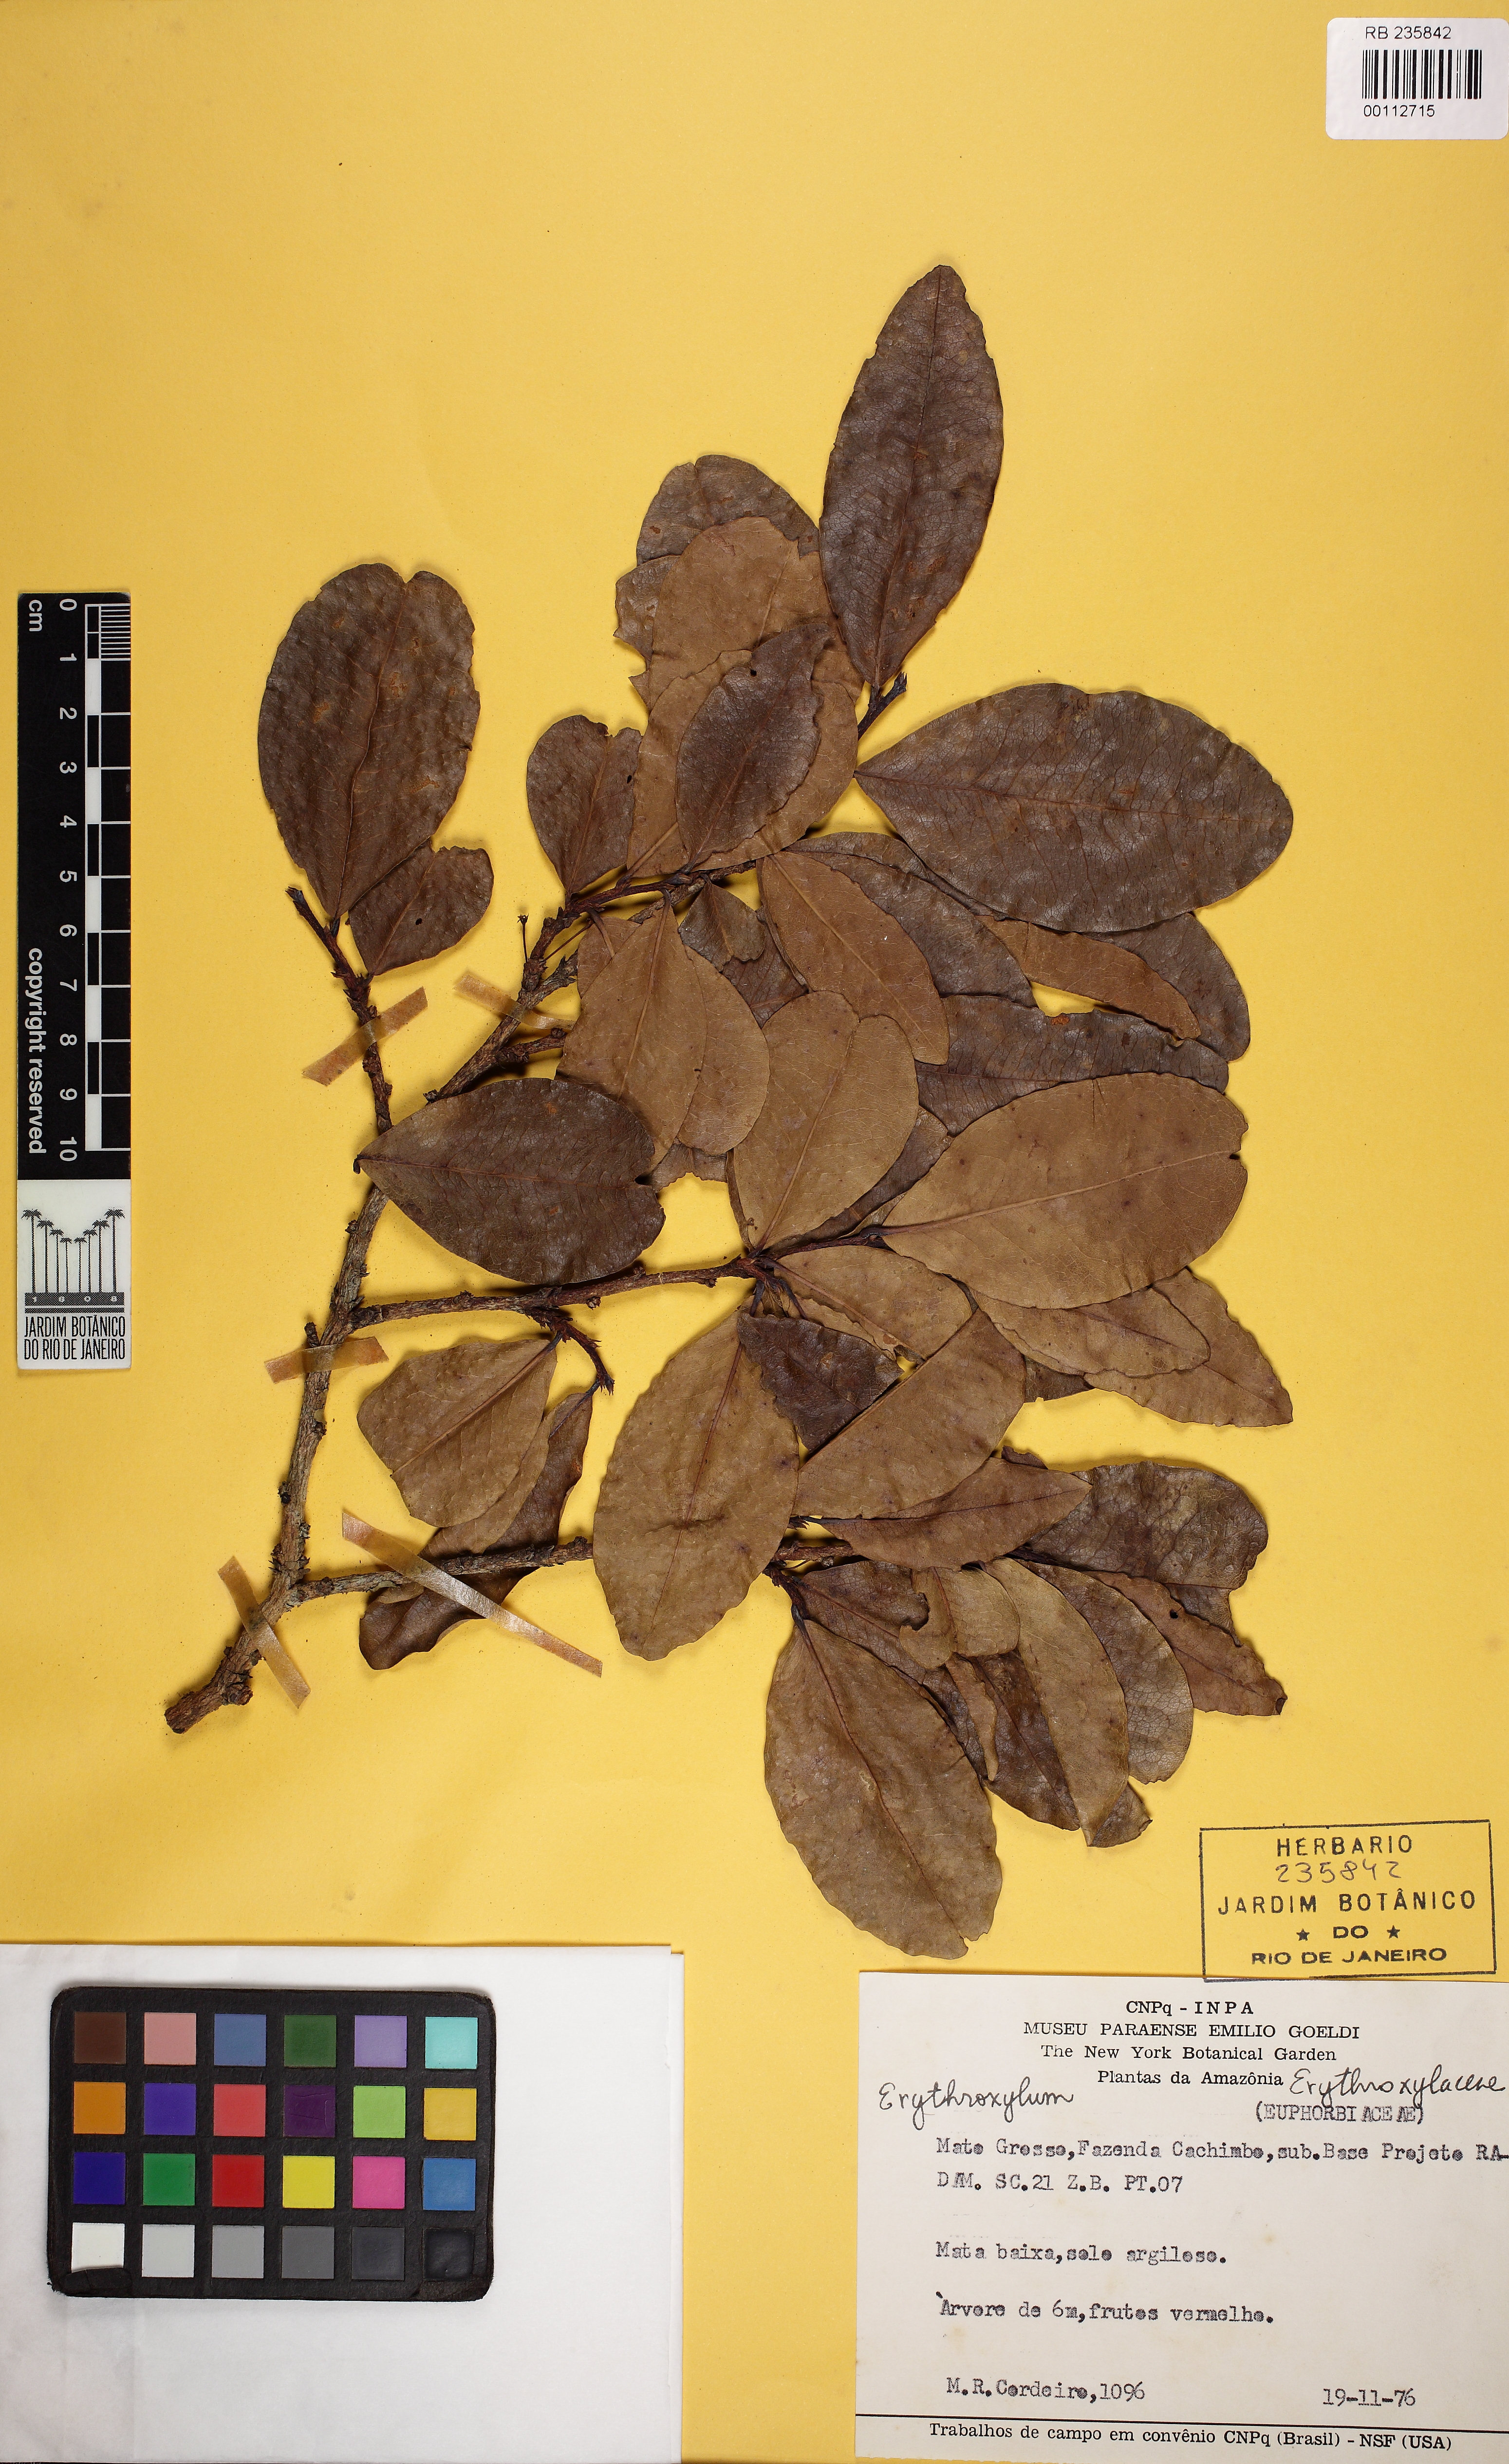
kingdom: Plantae
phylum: Tracheophyta
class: Magnoliopsida
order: Malpighiales
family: Euphorbiaceae
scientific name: Euphorbiaceae
